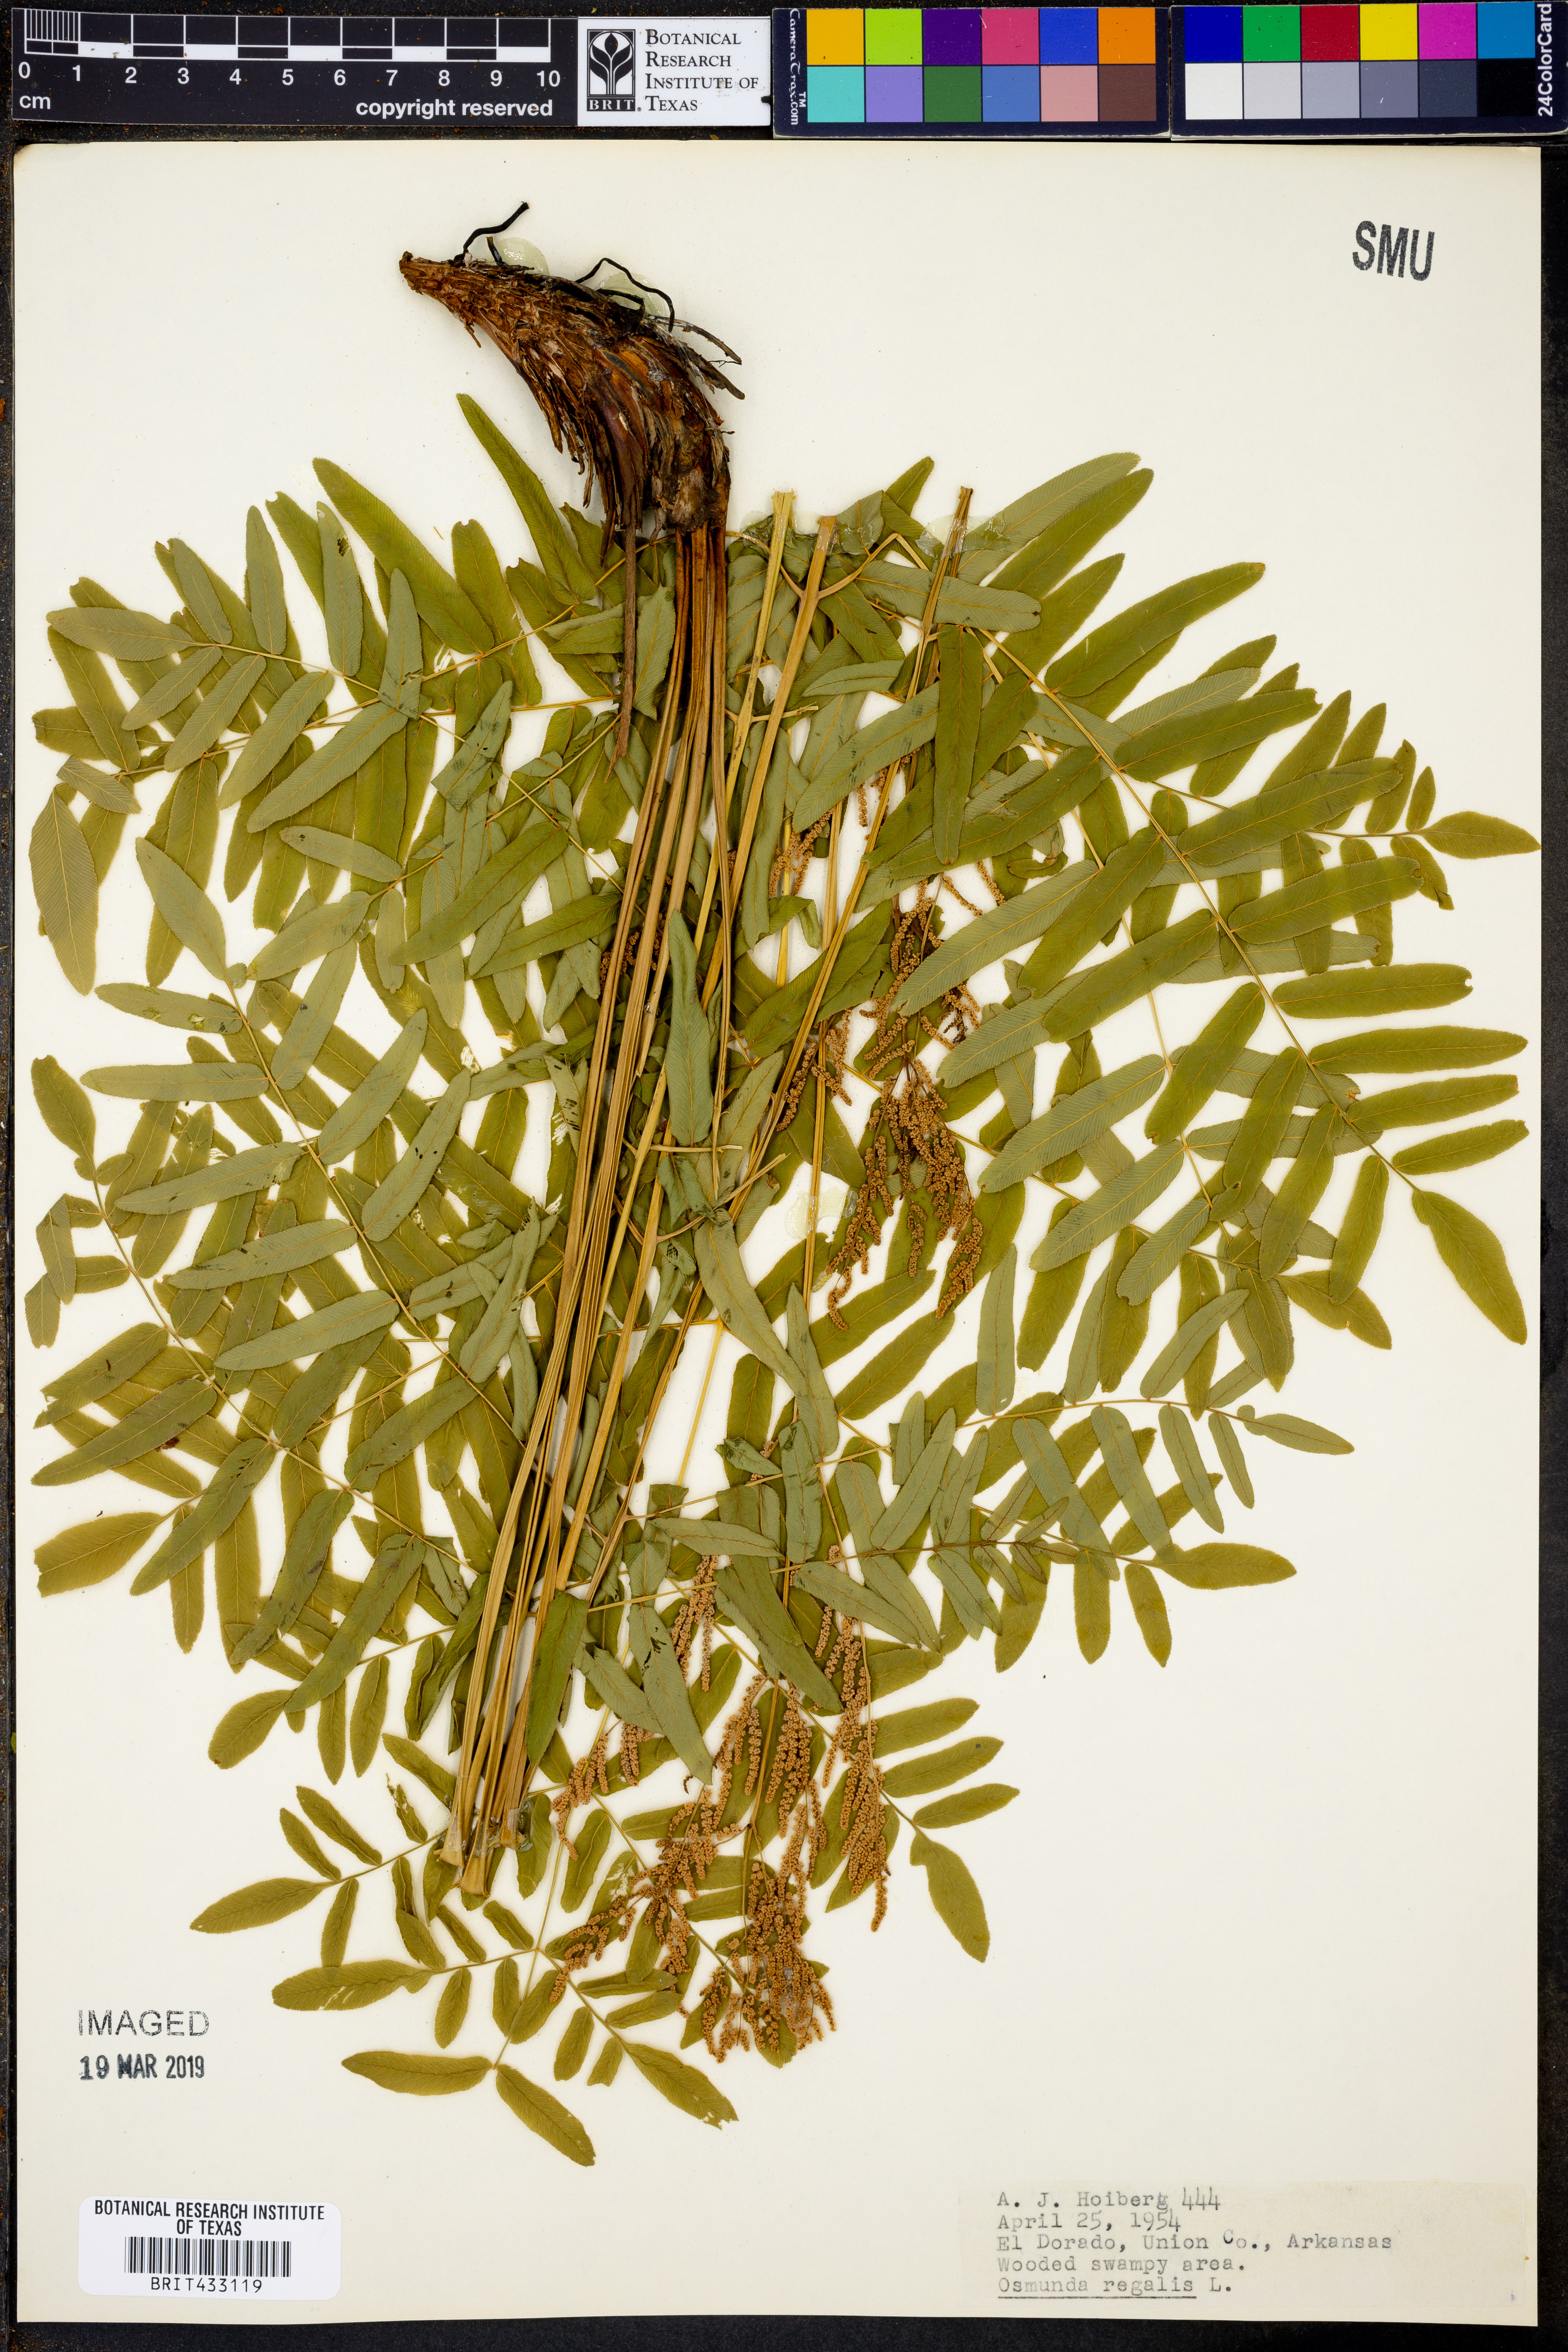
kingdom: Plantae
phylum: Tracheophyta
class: Polypodiopsida
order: Osmundales
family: Osmundaceae
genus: Osmunda
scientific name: Osmunda regalis
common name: Royal fern
